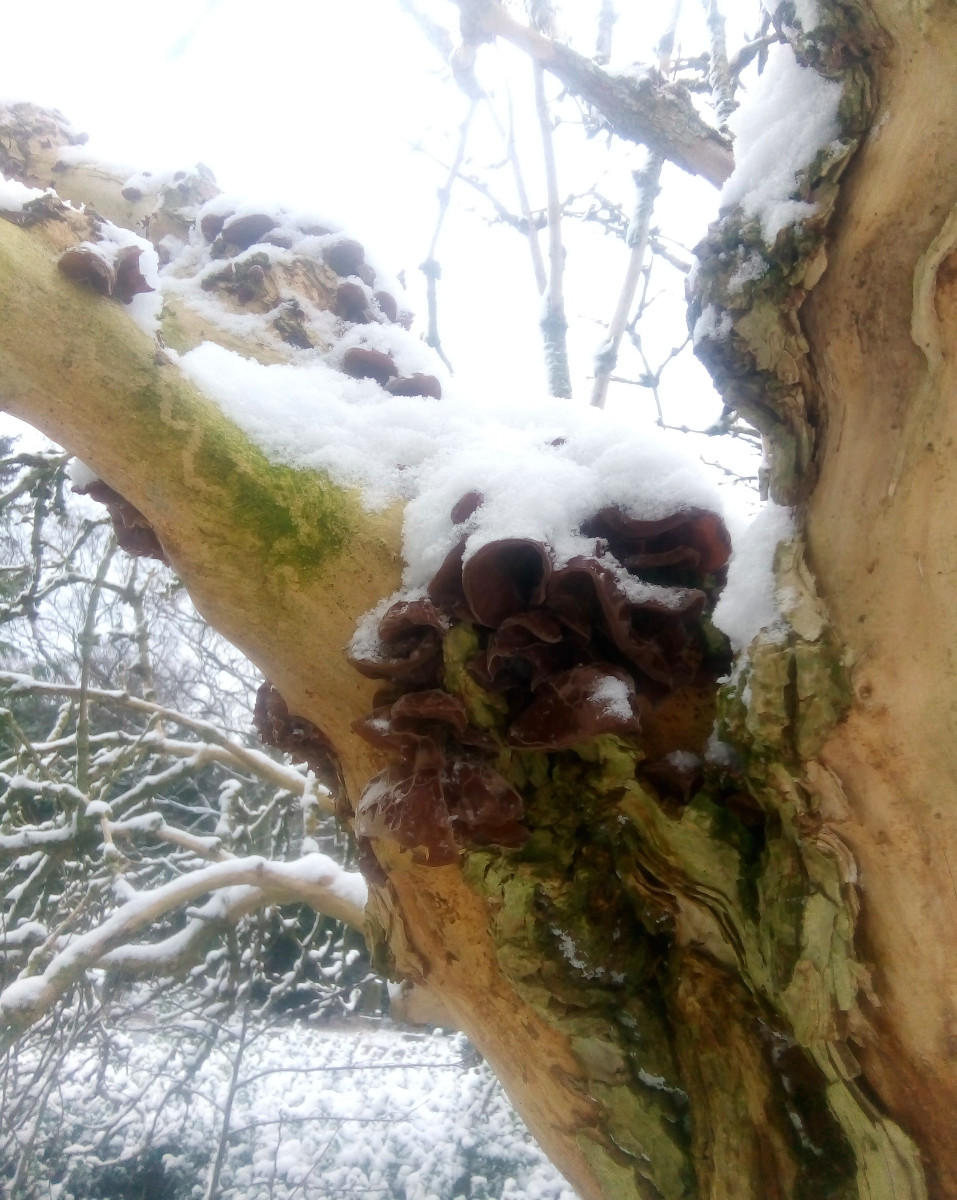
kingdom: Fungi
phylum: Basidiomycota
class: Agaricomycetes
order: Auriculariales
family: Auriculariaceae
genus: Auricularia
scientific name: Auricularia auricula-judae
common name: almindelig judasøre
